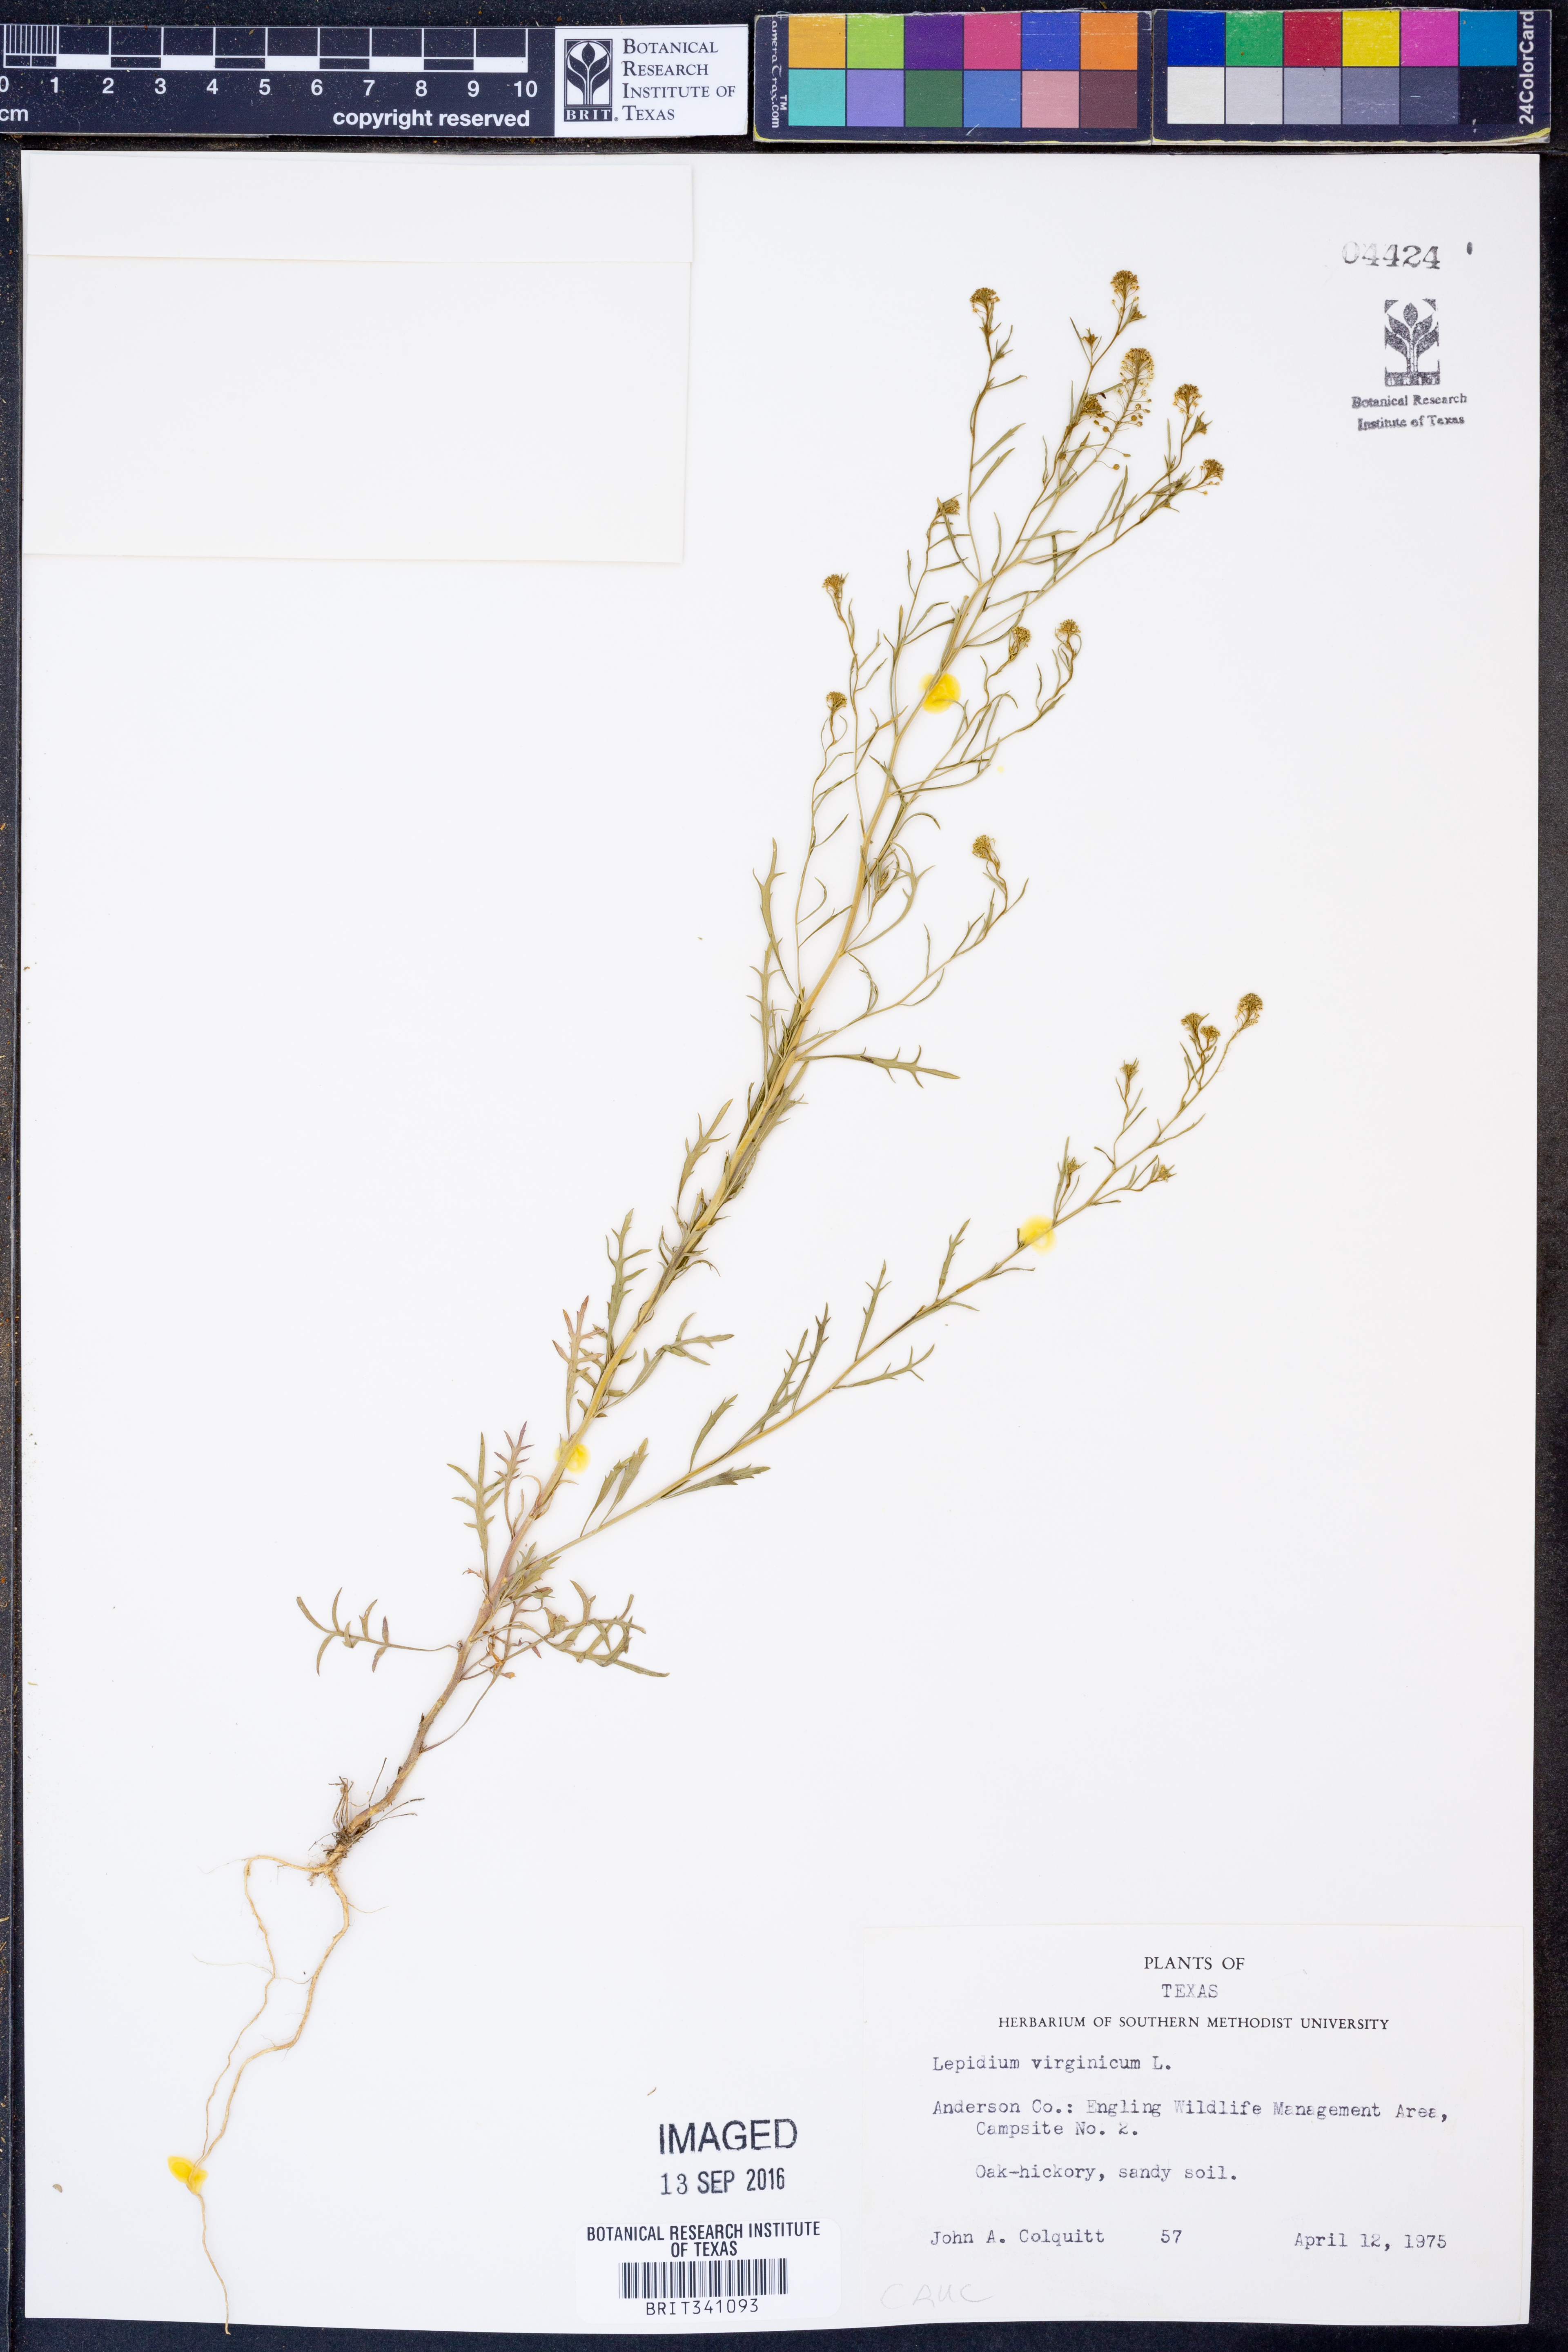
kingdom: Plantae
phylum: Tracheophyta
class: Magnoliopsida
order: Brassicales
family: Brassicaceae
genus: Lepidium
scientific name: Lepidium virginicum
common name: Least pepperwort
